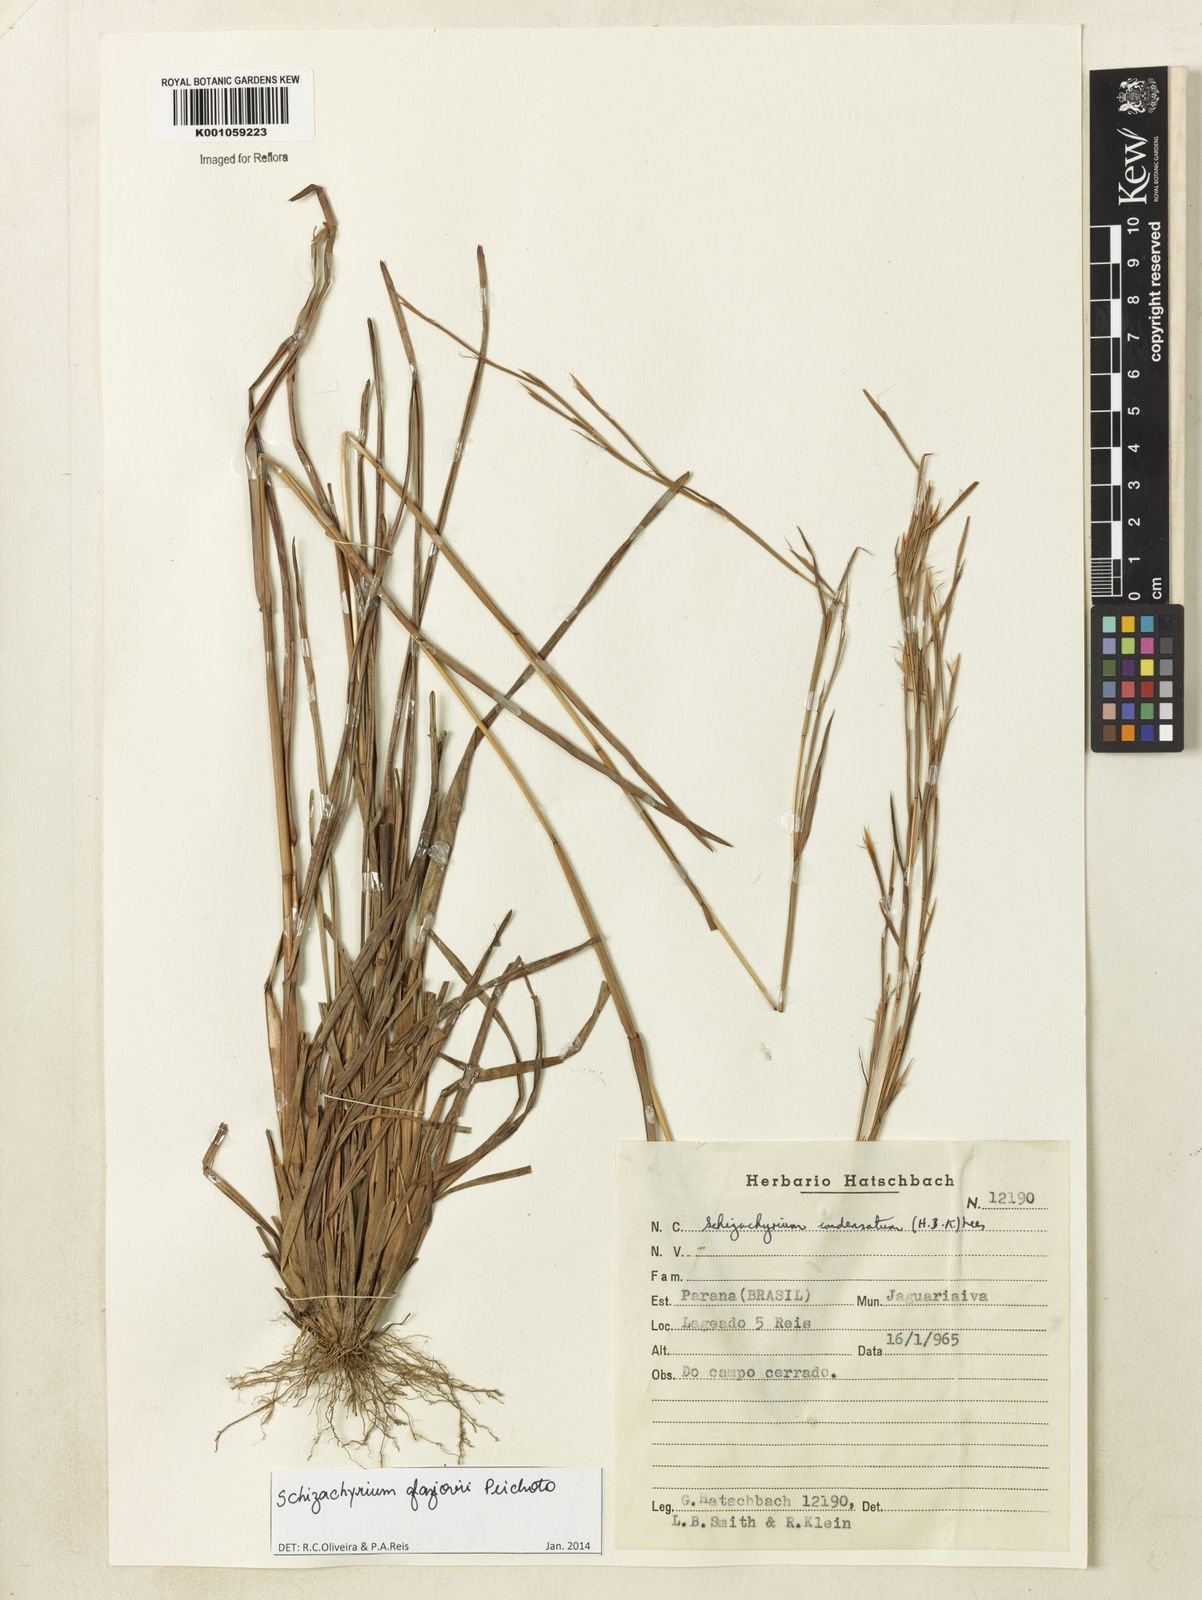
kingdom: Plantae
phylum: Tracheophyta
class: Liliopsida
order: Poales
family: Poaceae
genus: Schizachyrium
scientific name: Schizachyrium glaziovii
